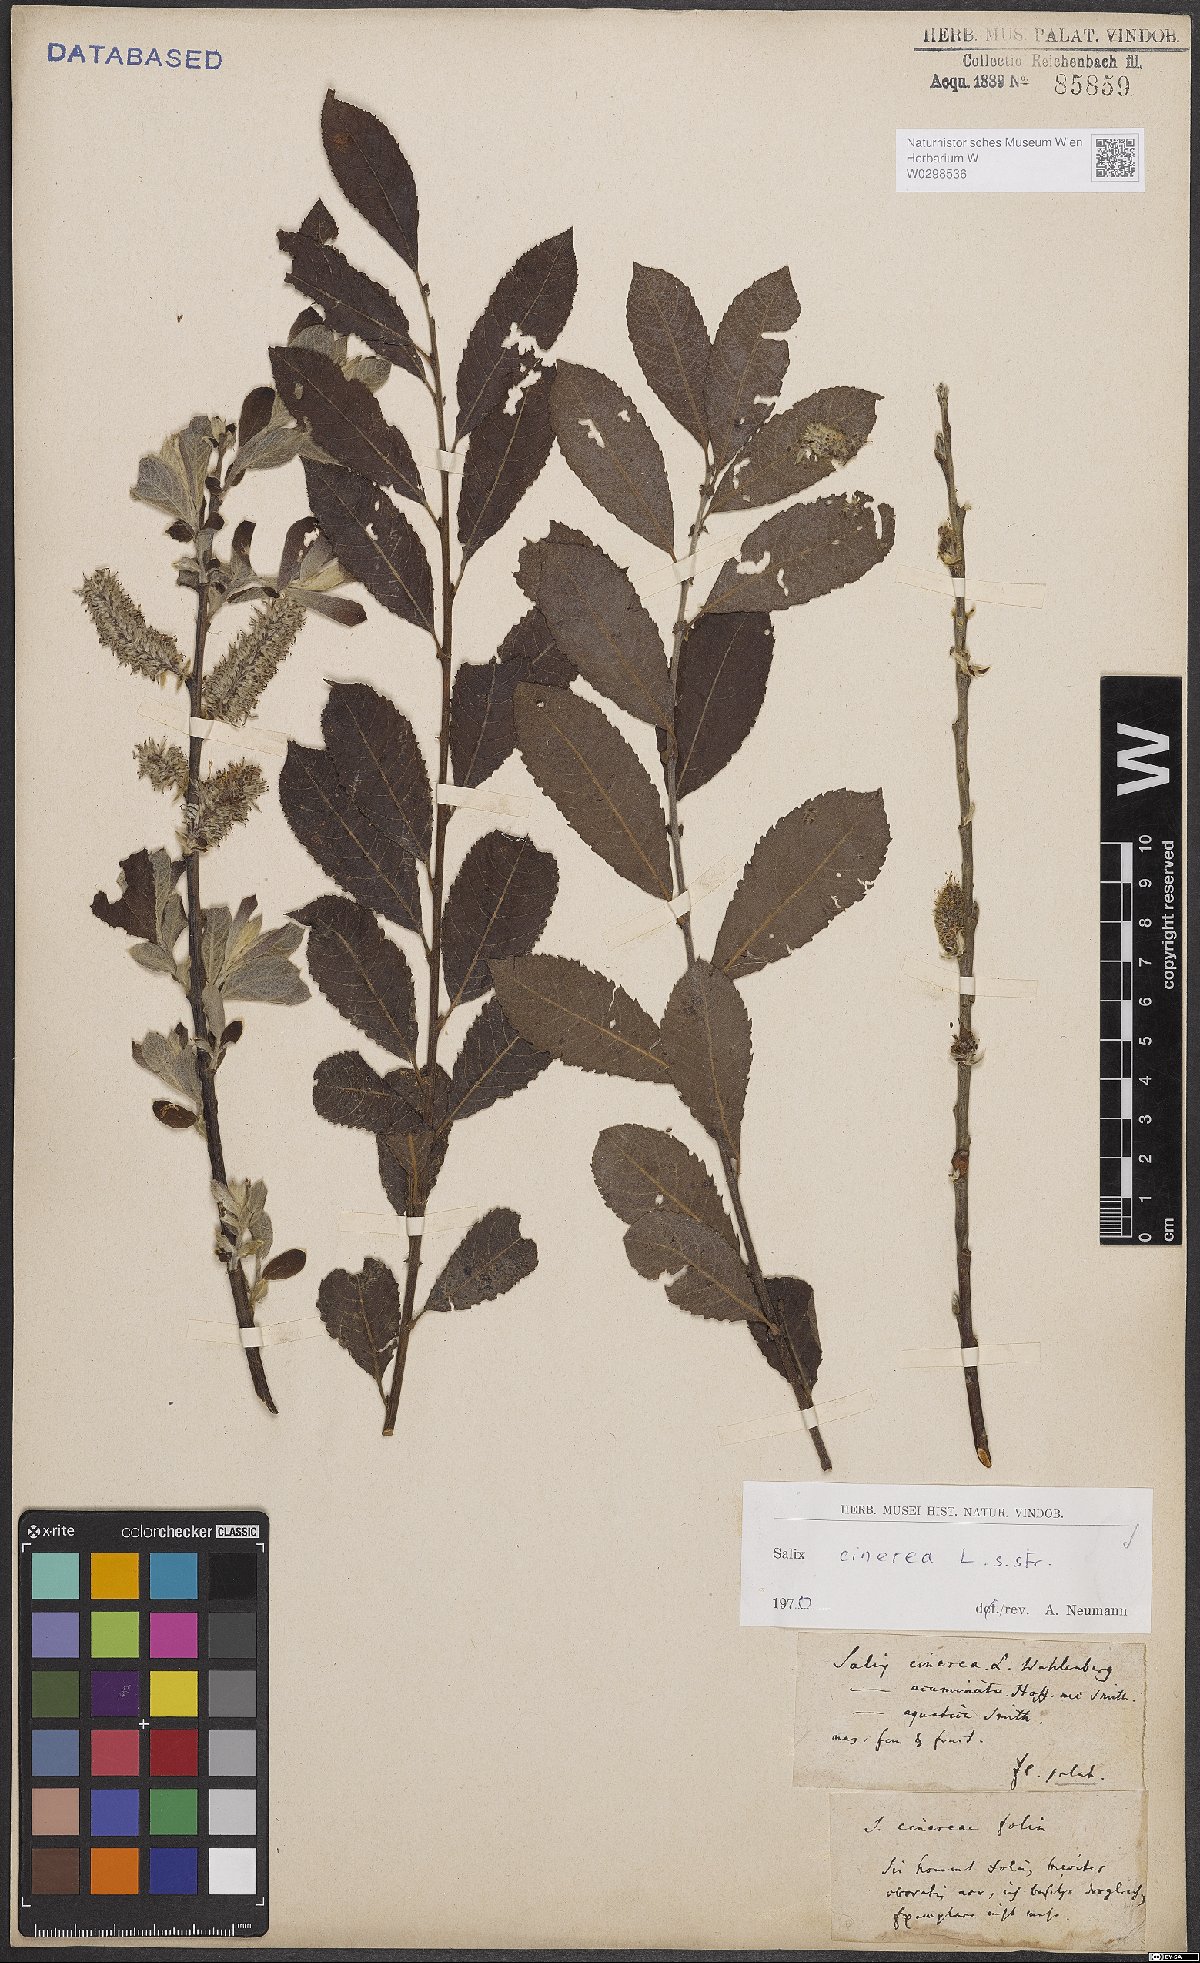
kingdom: Plantae
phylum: Tracheophyta
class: Magnoliopsida
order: Malpighiales
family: Salicaceae
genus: Salix
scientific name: Salix cinerea
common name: Common sallow
